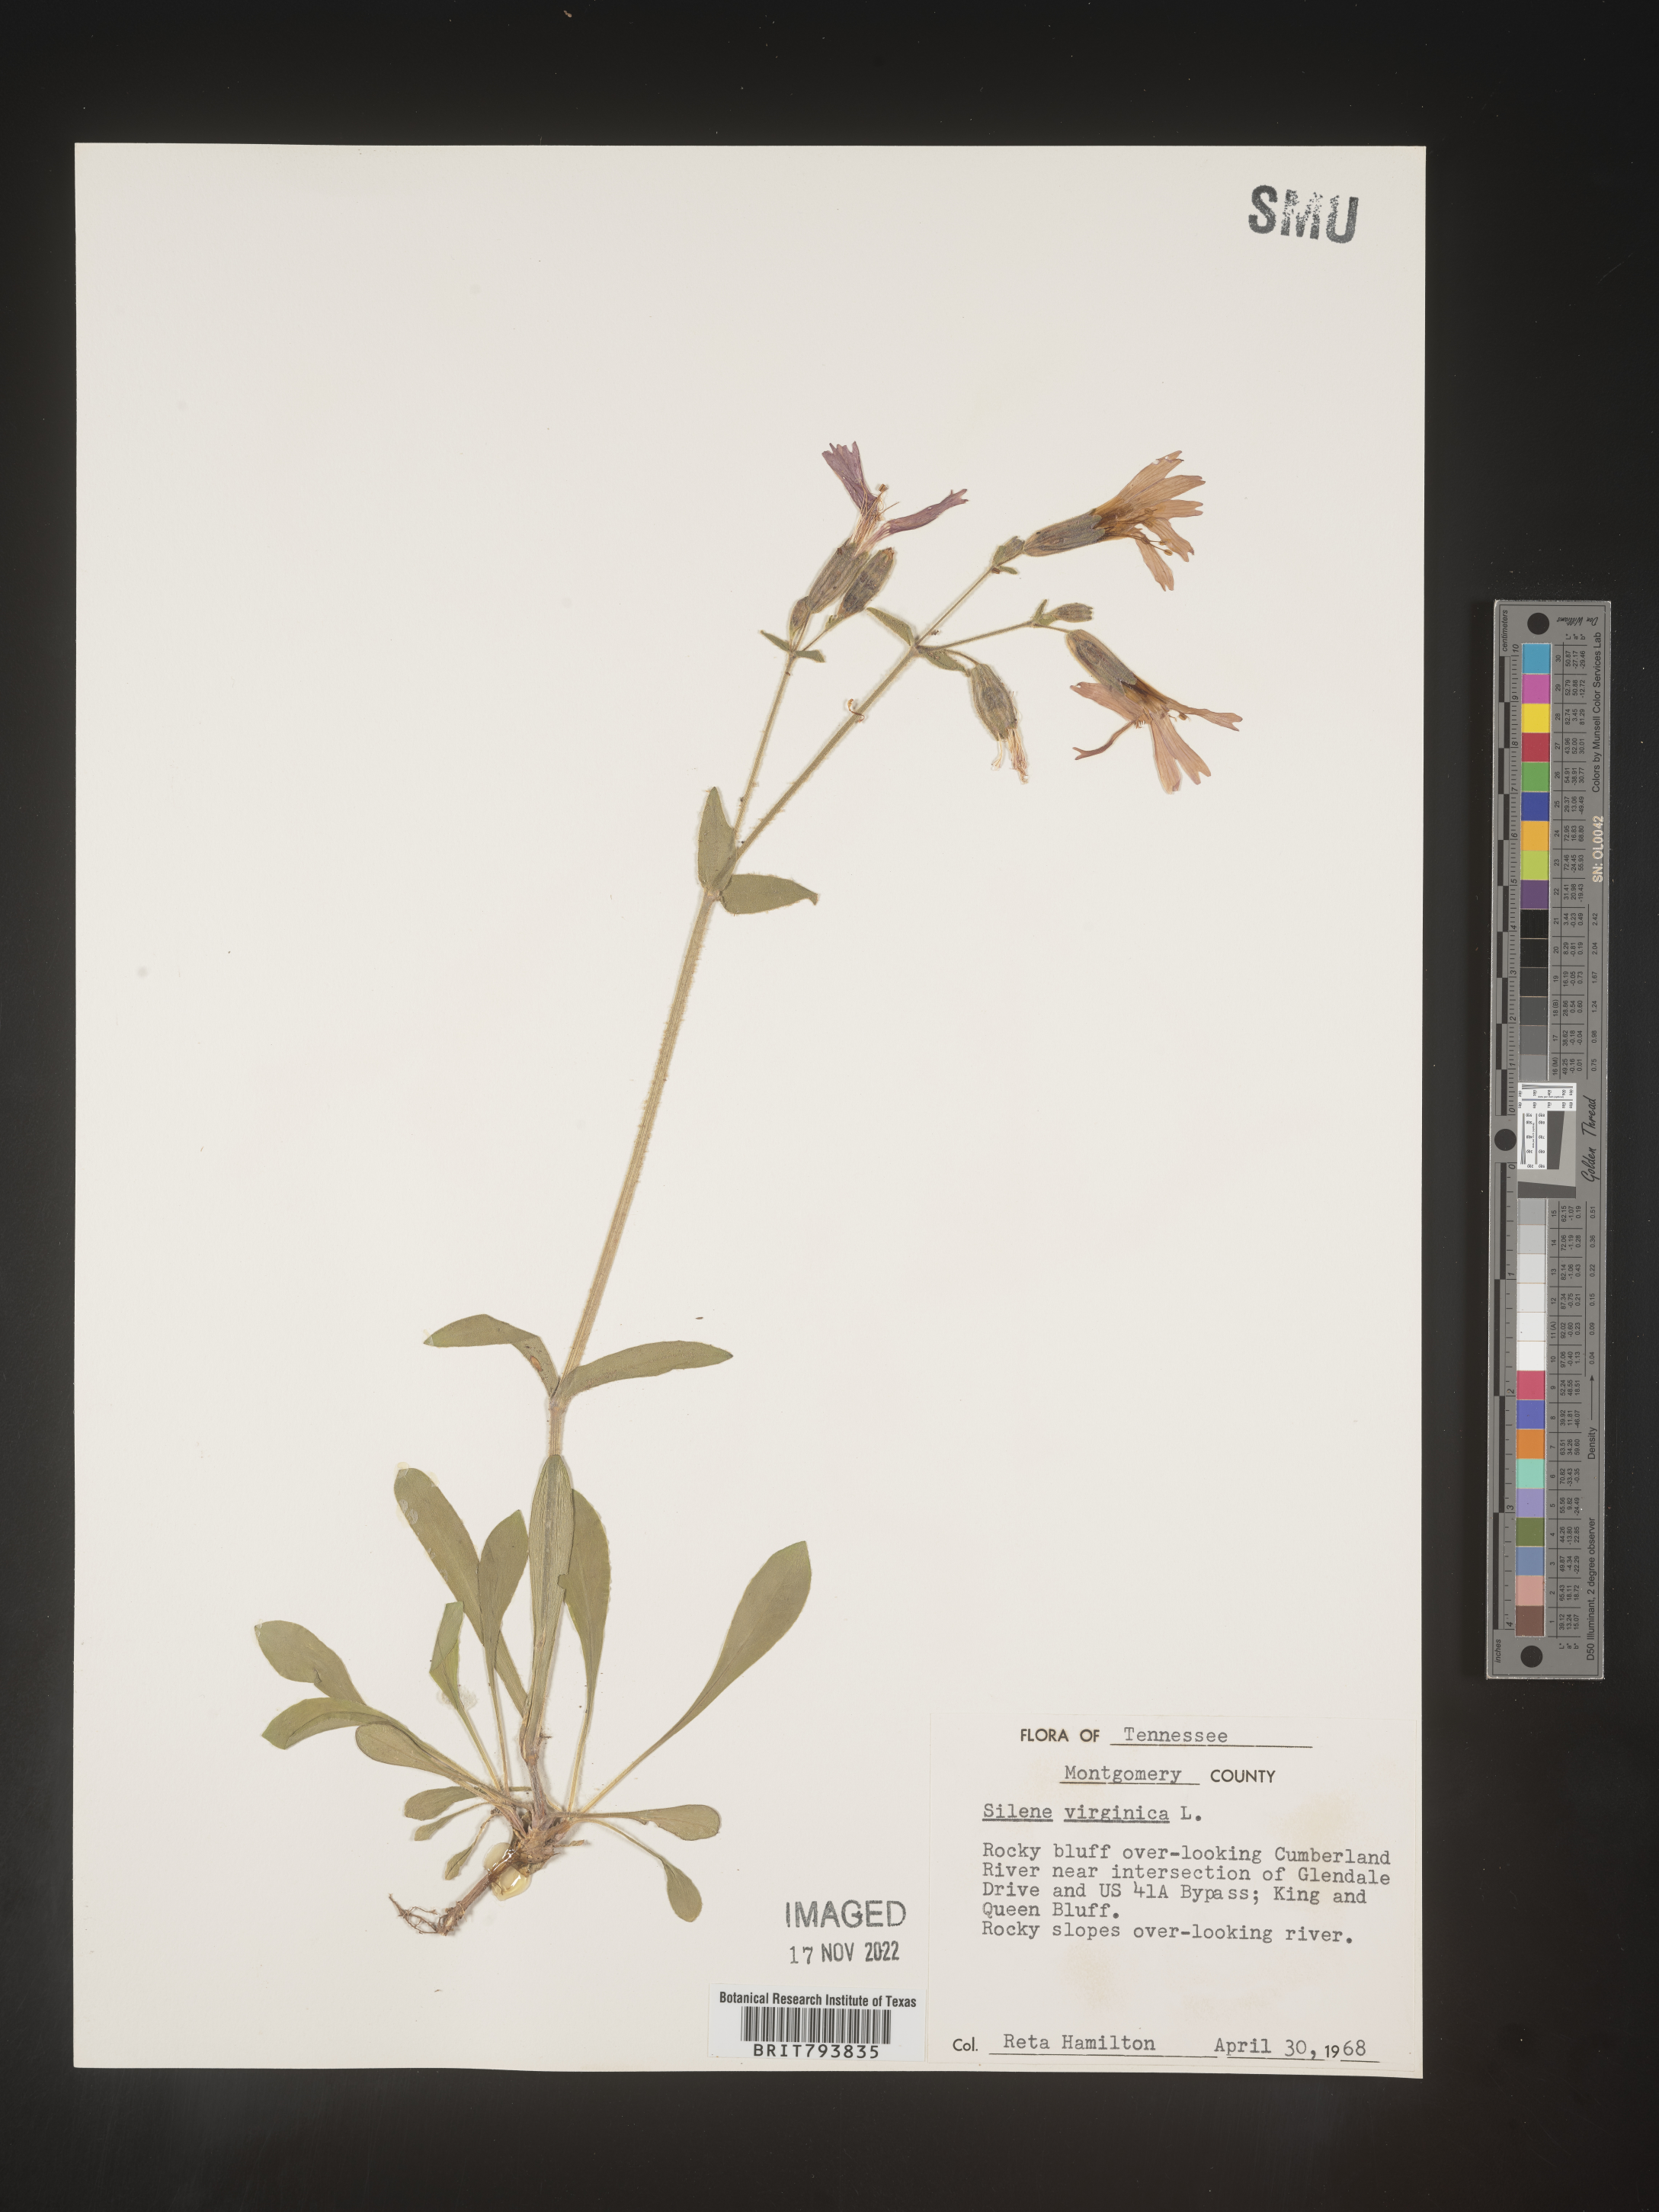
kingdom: Plantae
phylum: Tracheophyta
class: Magnoliopsida
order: Caryophyllales
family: Caryophyllaceae
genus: Silene
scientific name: Silene virginica
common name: Fire-pink
